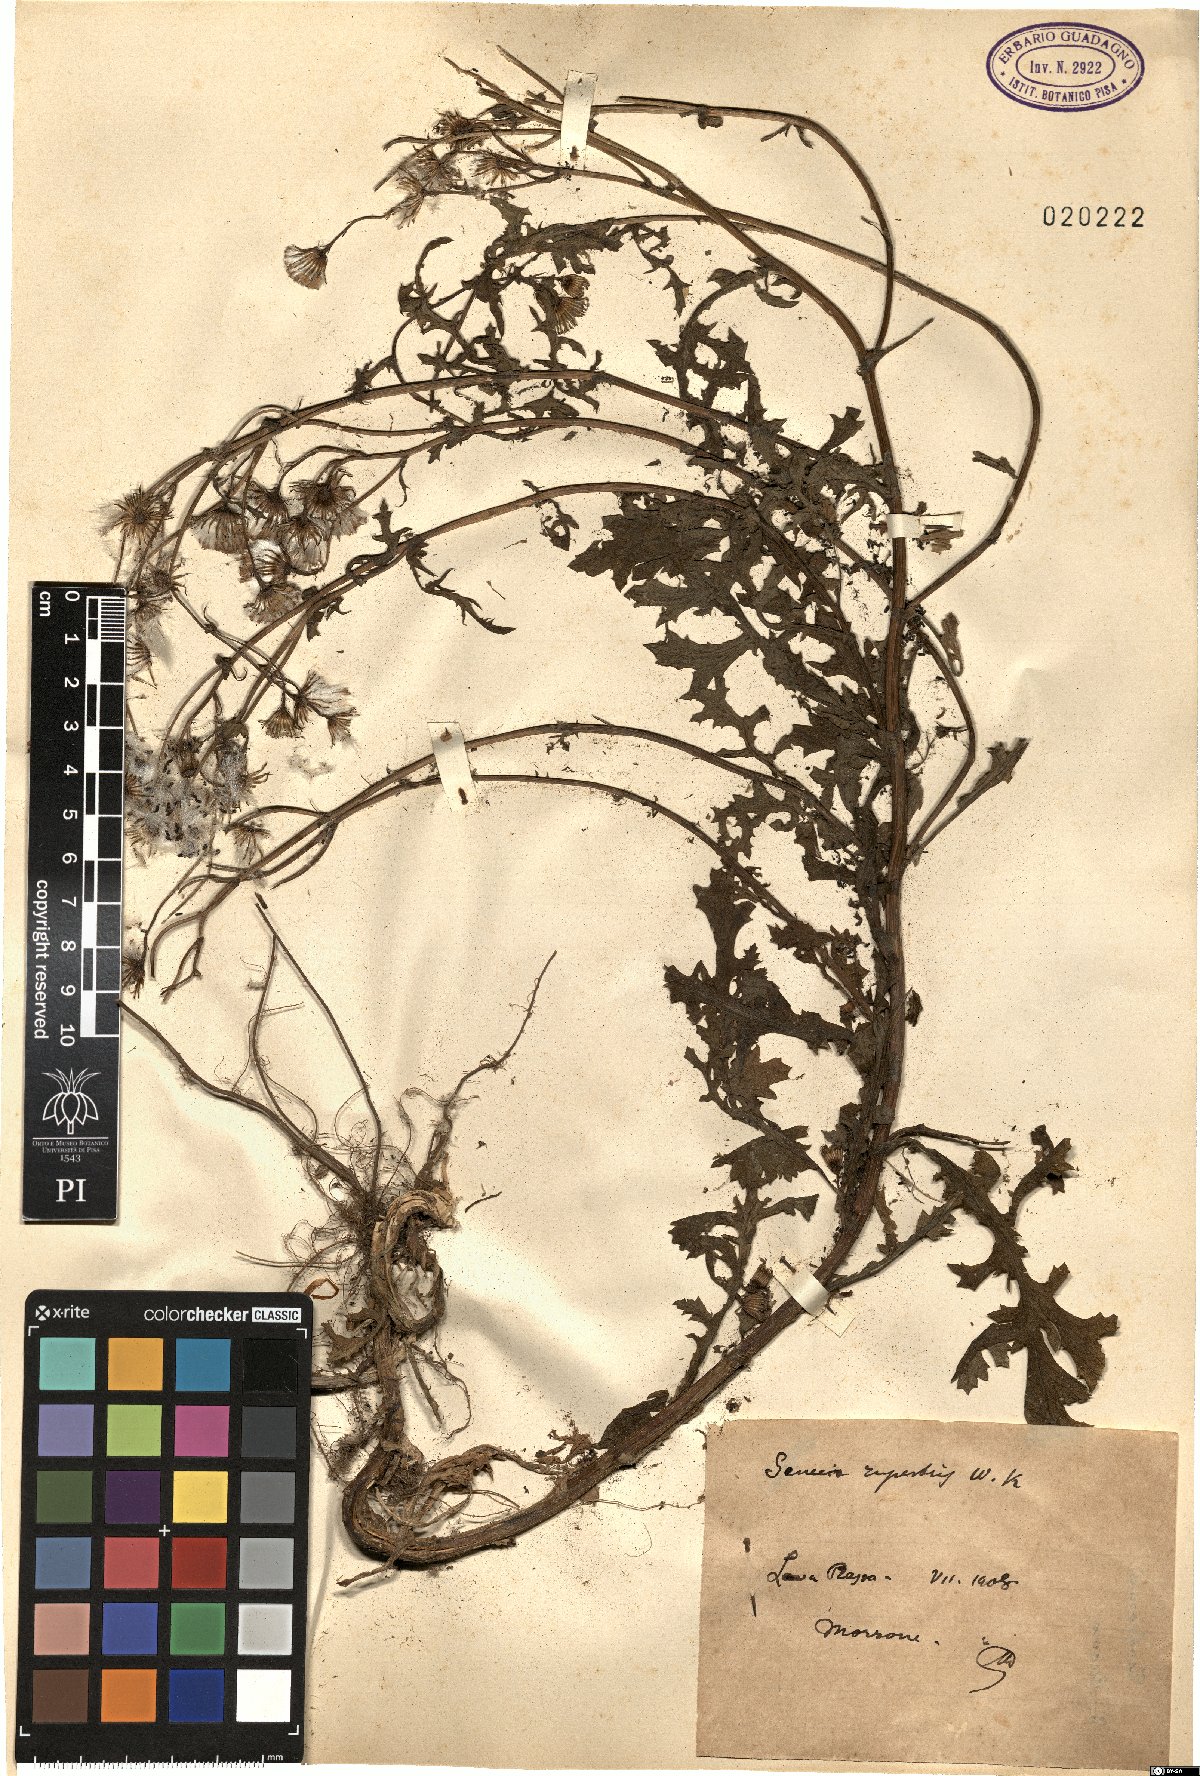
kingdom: Plantae
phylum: Tracheophyta
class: Magnoliopsida
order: Asterales
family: Asteraceae
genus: Senecio
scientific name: Senecio rupestris
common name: Rock ragwort
